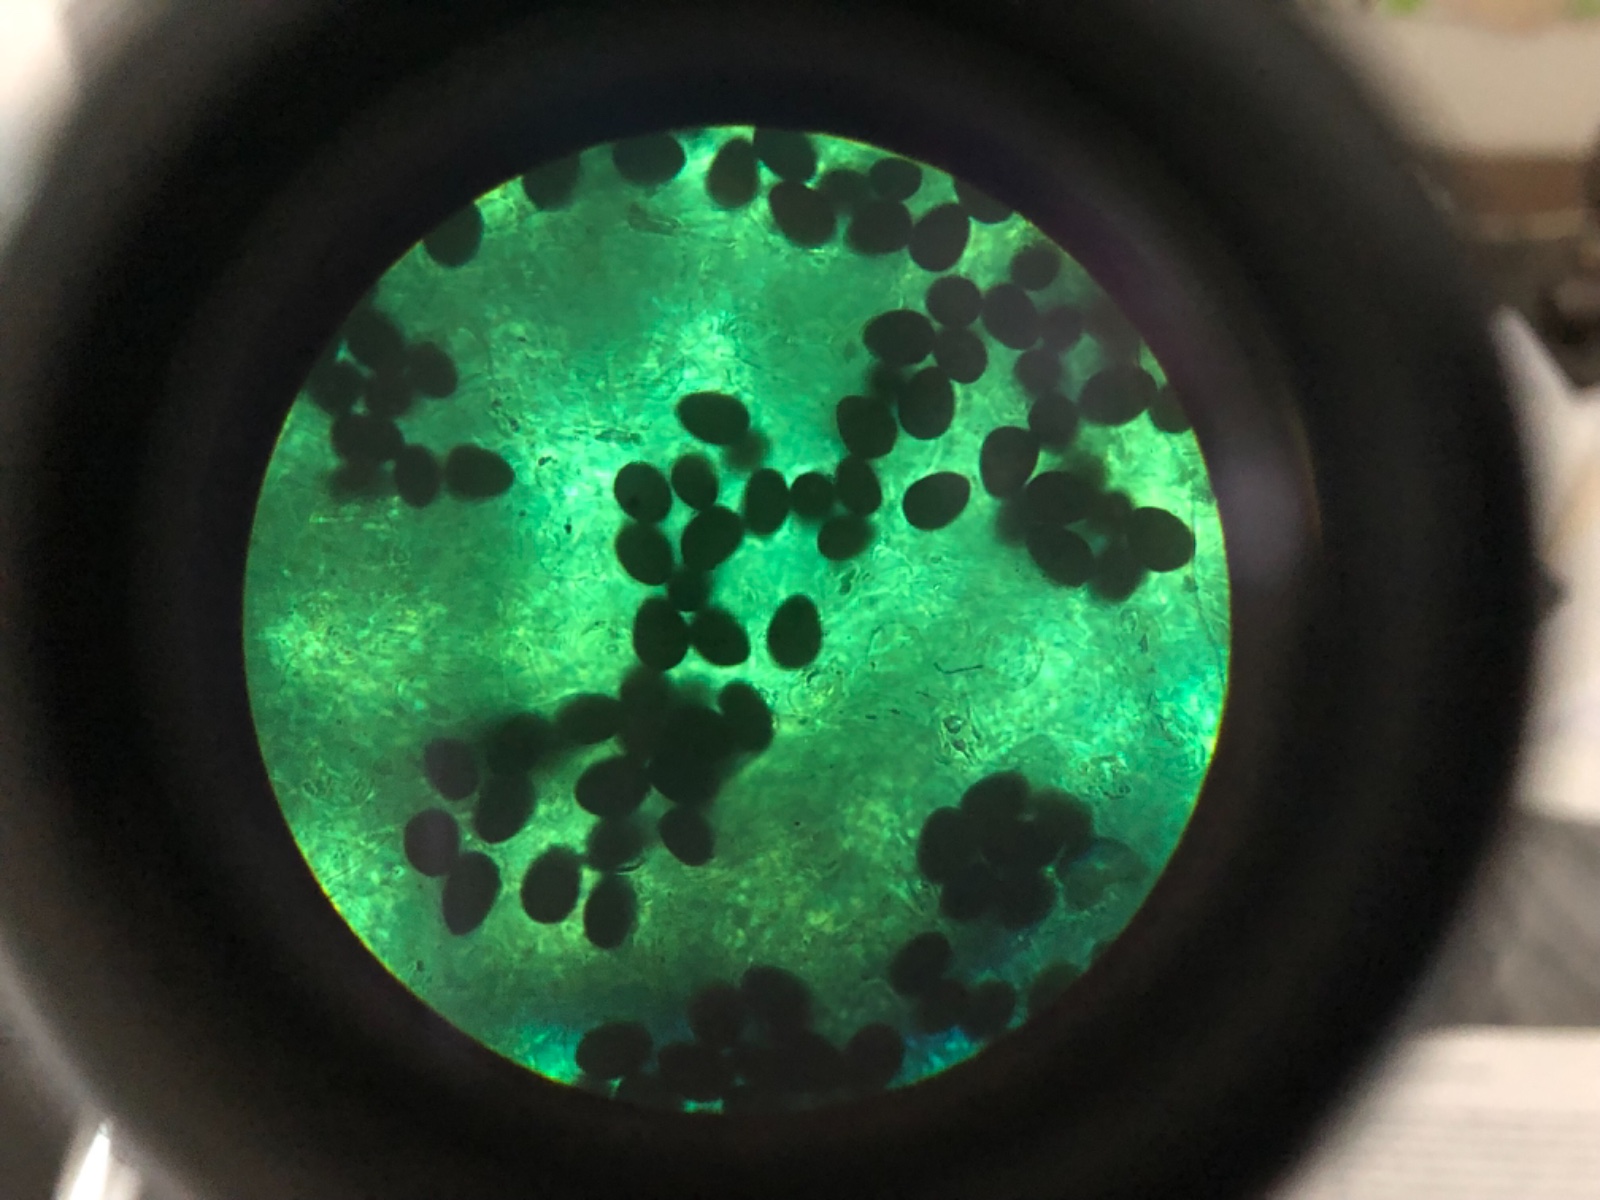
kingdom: Fungi
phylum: Basidiomycota
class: Agaricomycetes
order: Agaricales
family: Psathyrellaceae
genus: Parasola
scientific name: Parasola megasperma
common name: storsporet hjulhat
